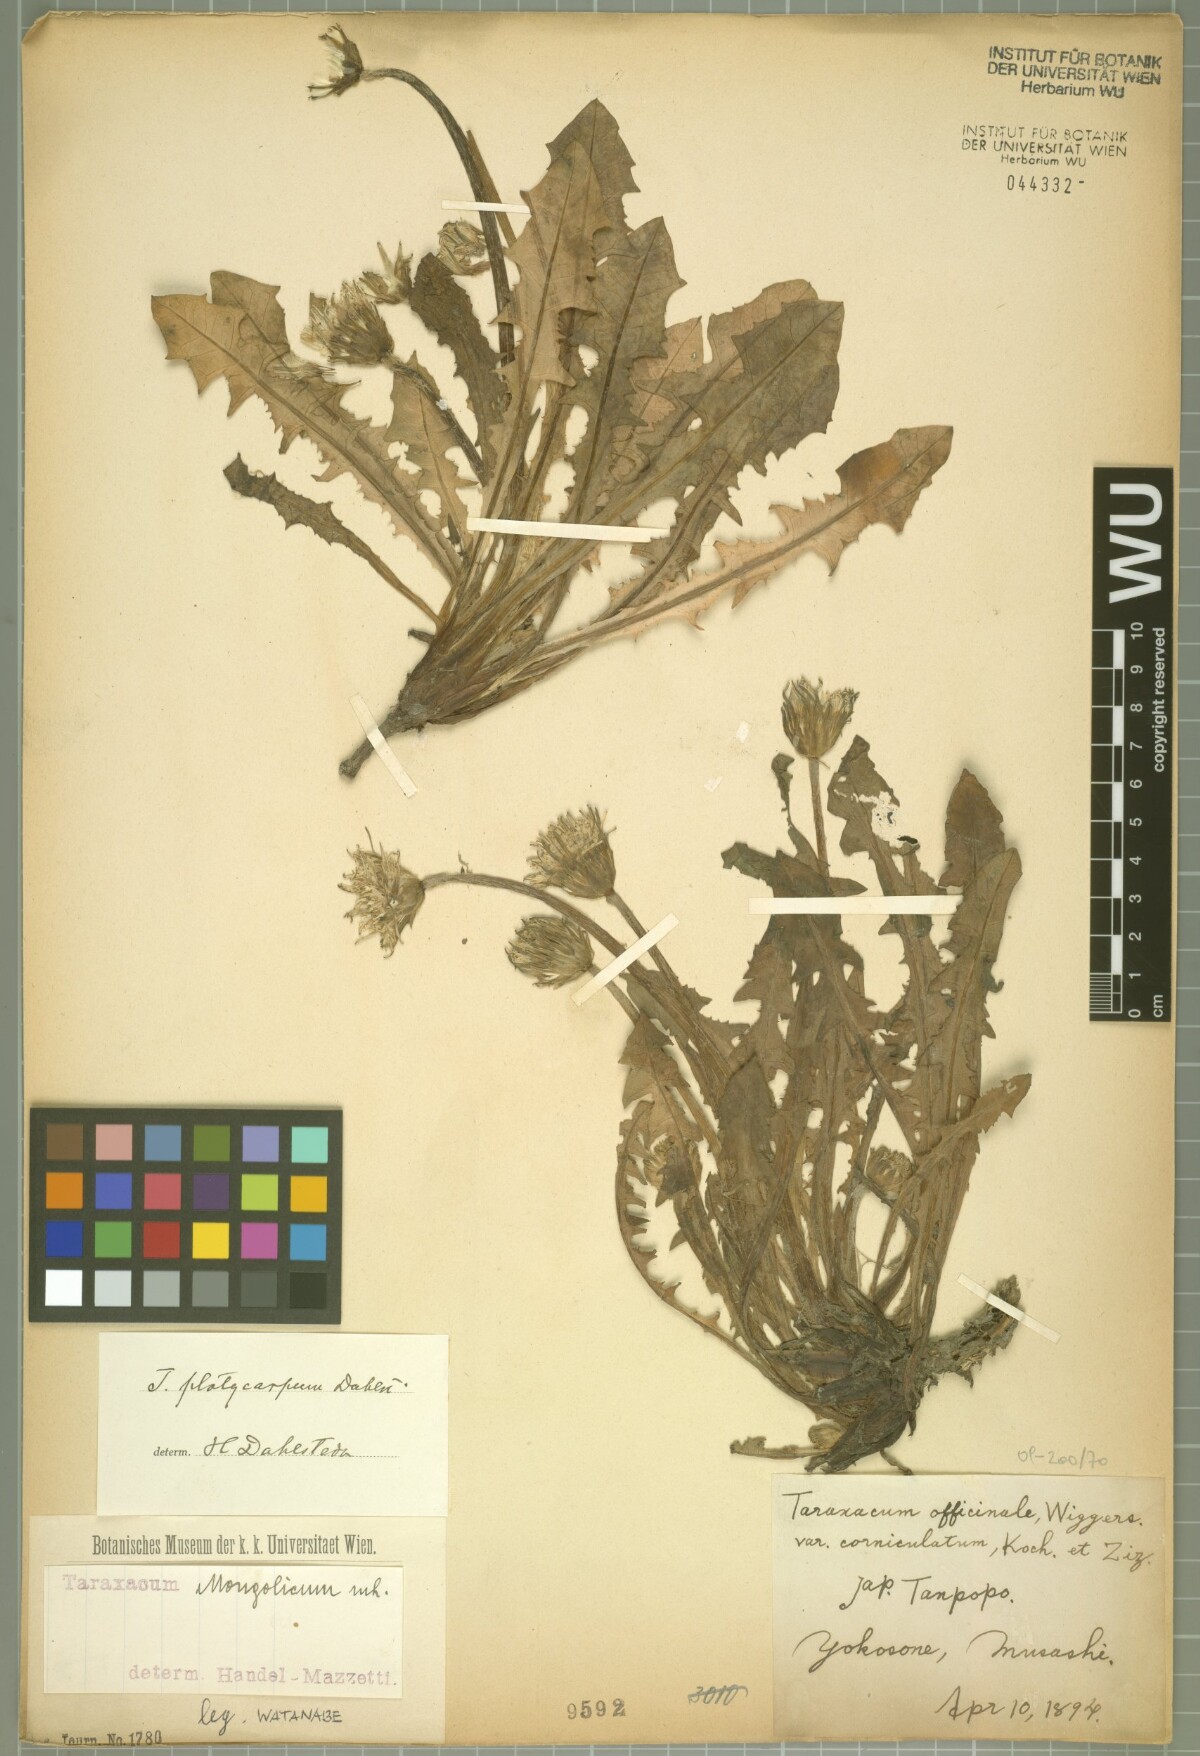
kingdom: Plantae
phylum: Tracheophyta
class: Magnoliopsida
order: Asterales
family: Asteraceae
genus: Taraxacum
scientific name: Taraxacum mongolicum
